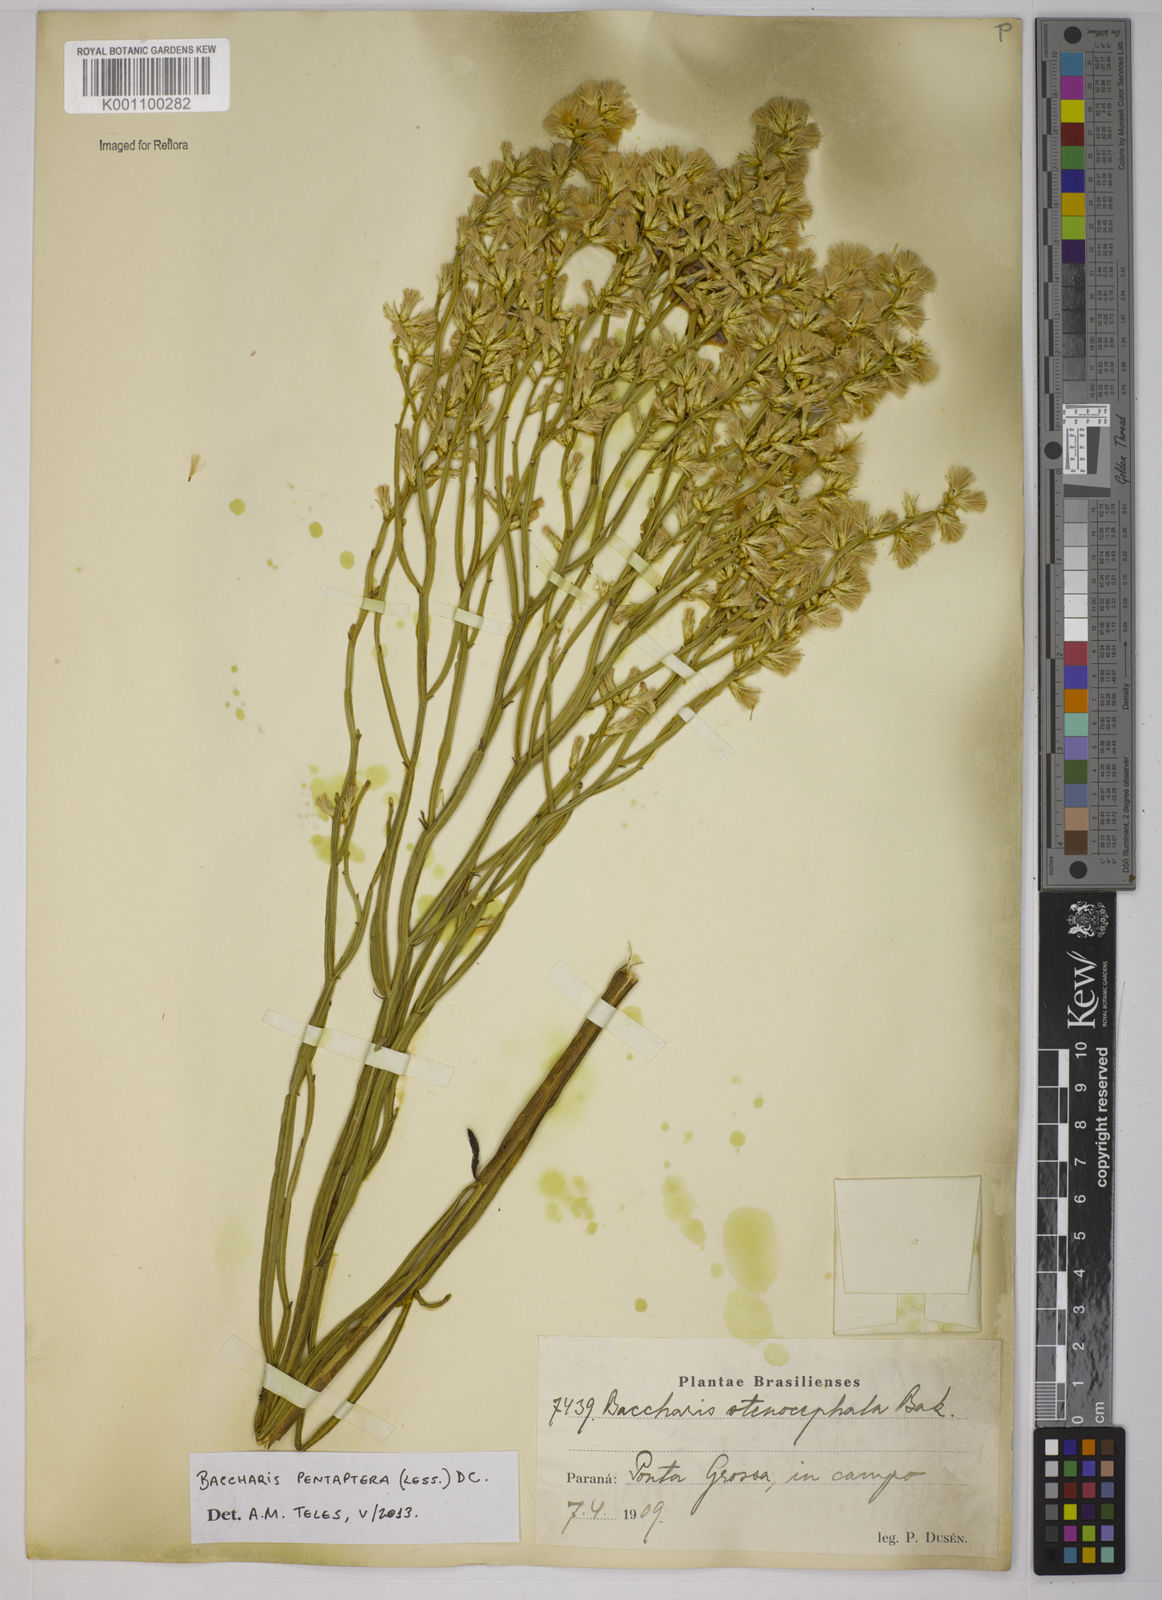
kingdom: Plantae
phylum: Tracheophyta
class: Magnoliopsida
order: Asterales
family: Asteraceae
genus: Baccharis
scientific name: Baccharis pentaptera
